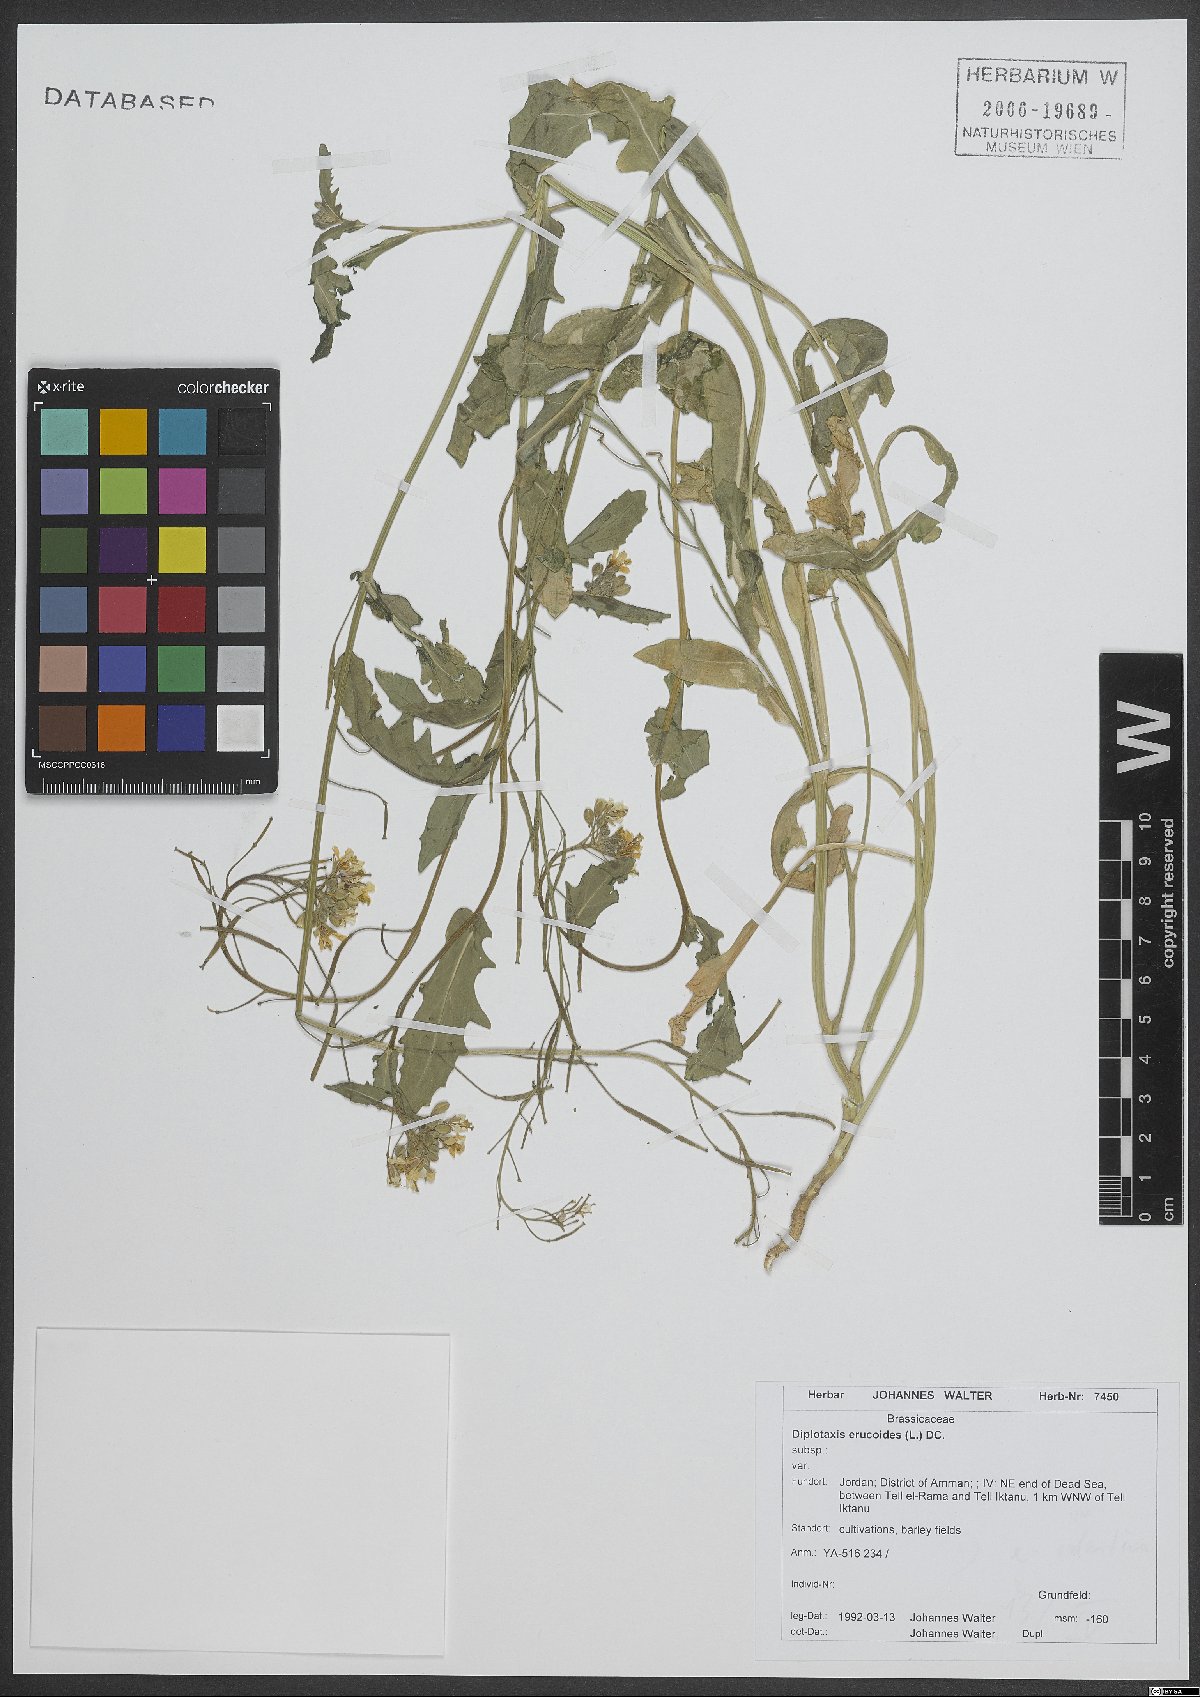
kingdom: Plantae
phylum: Tracheophyta
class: Magnoliopsida
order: Brassicales
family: Brassicaceae
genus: Diplotaxis
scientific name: Diplotaxis erucoides
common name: White rocket
